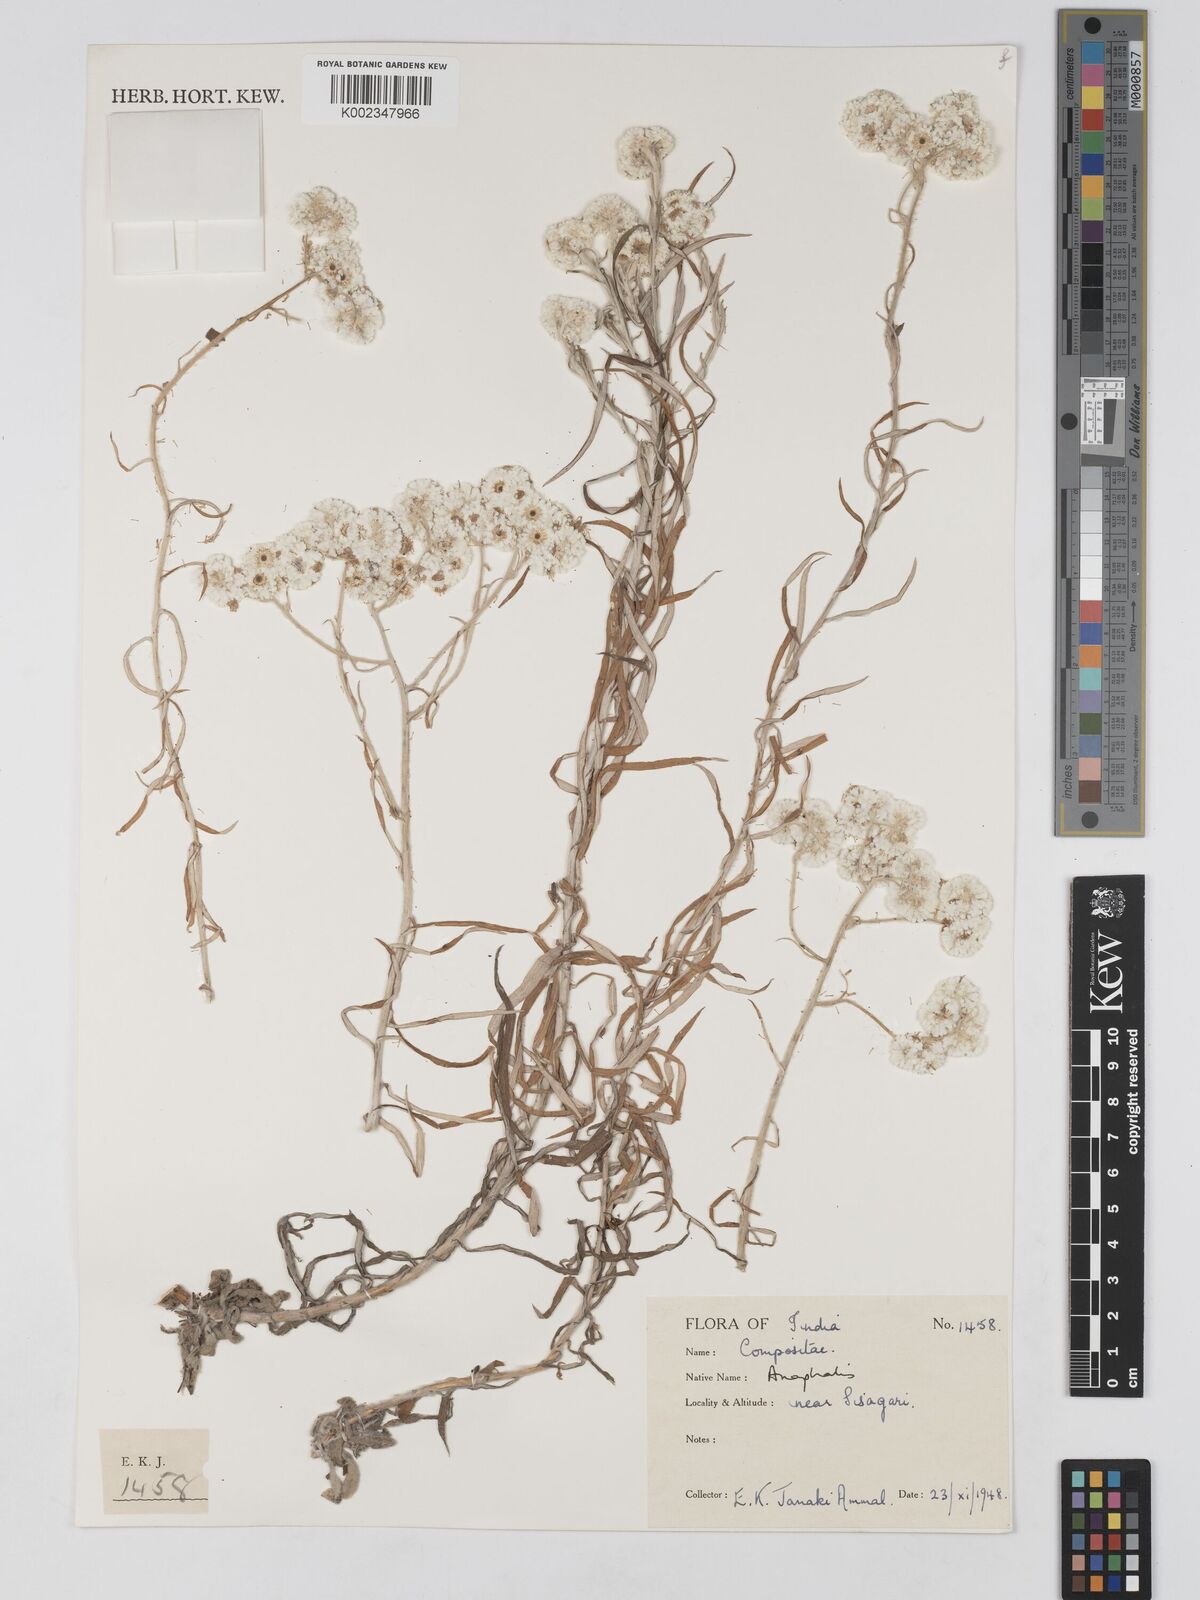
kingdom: Plantae
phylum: Tracheophyta
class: Magnoliopsida
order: Asterales
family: Asteraceae
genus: Anaphalis
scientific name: Anaphalis
